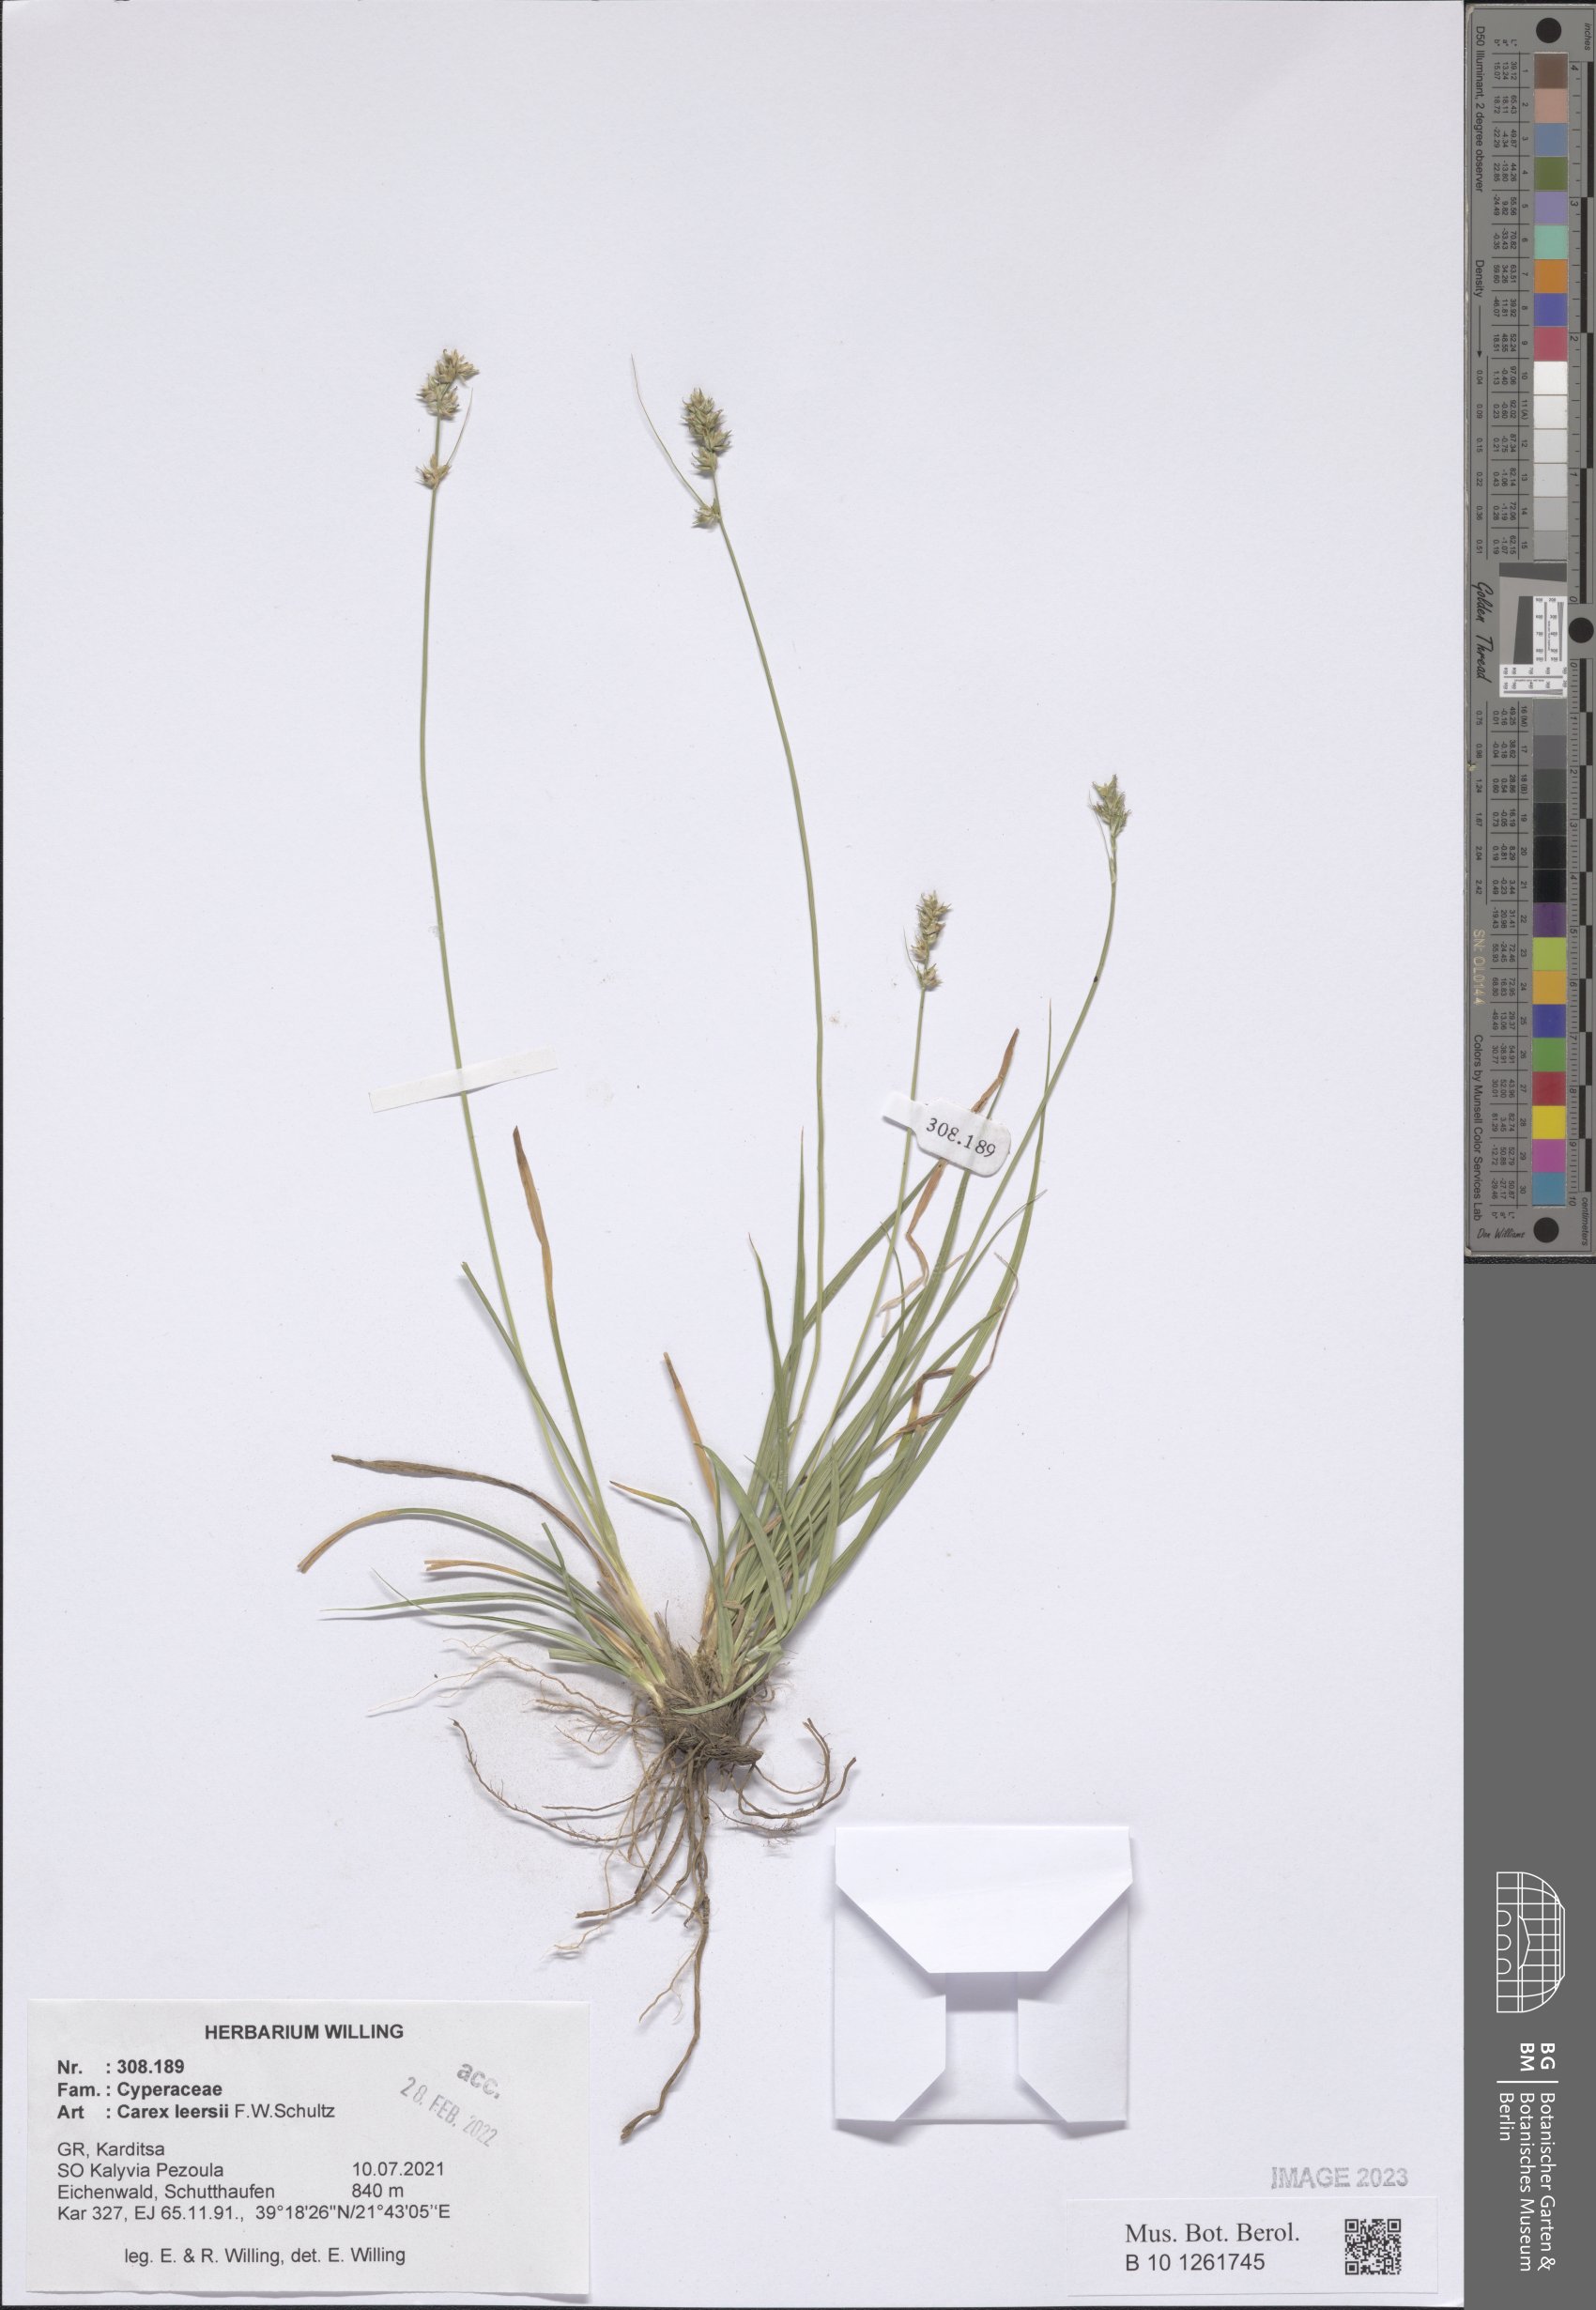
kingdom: Plantae
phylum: Tracheophyta
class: Liliopsida
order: Poales
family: Cyperaceae
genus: Carex
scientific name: Carex leersii
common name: Leers' sedge
